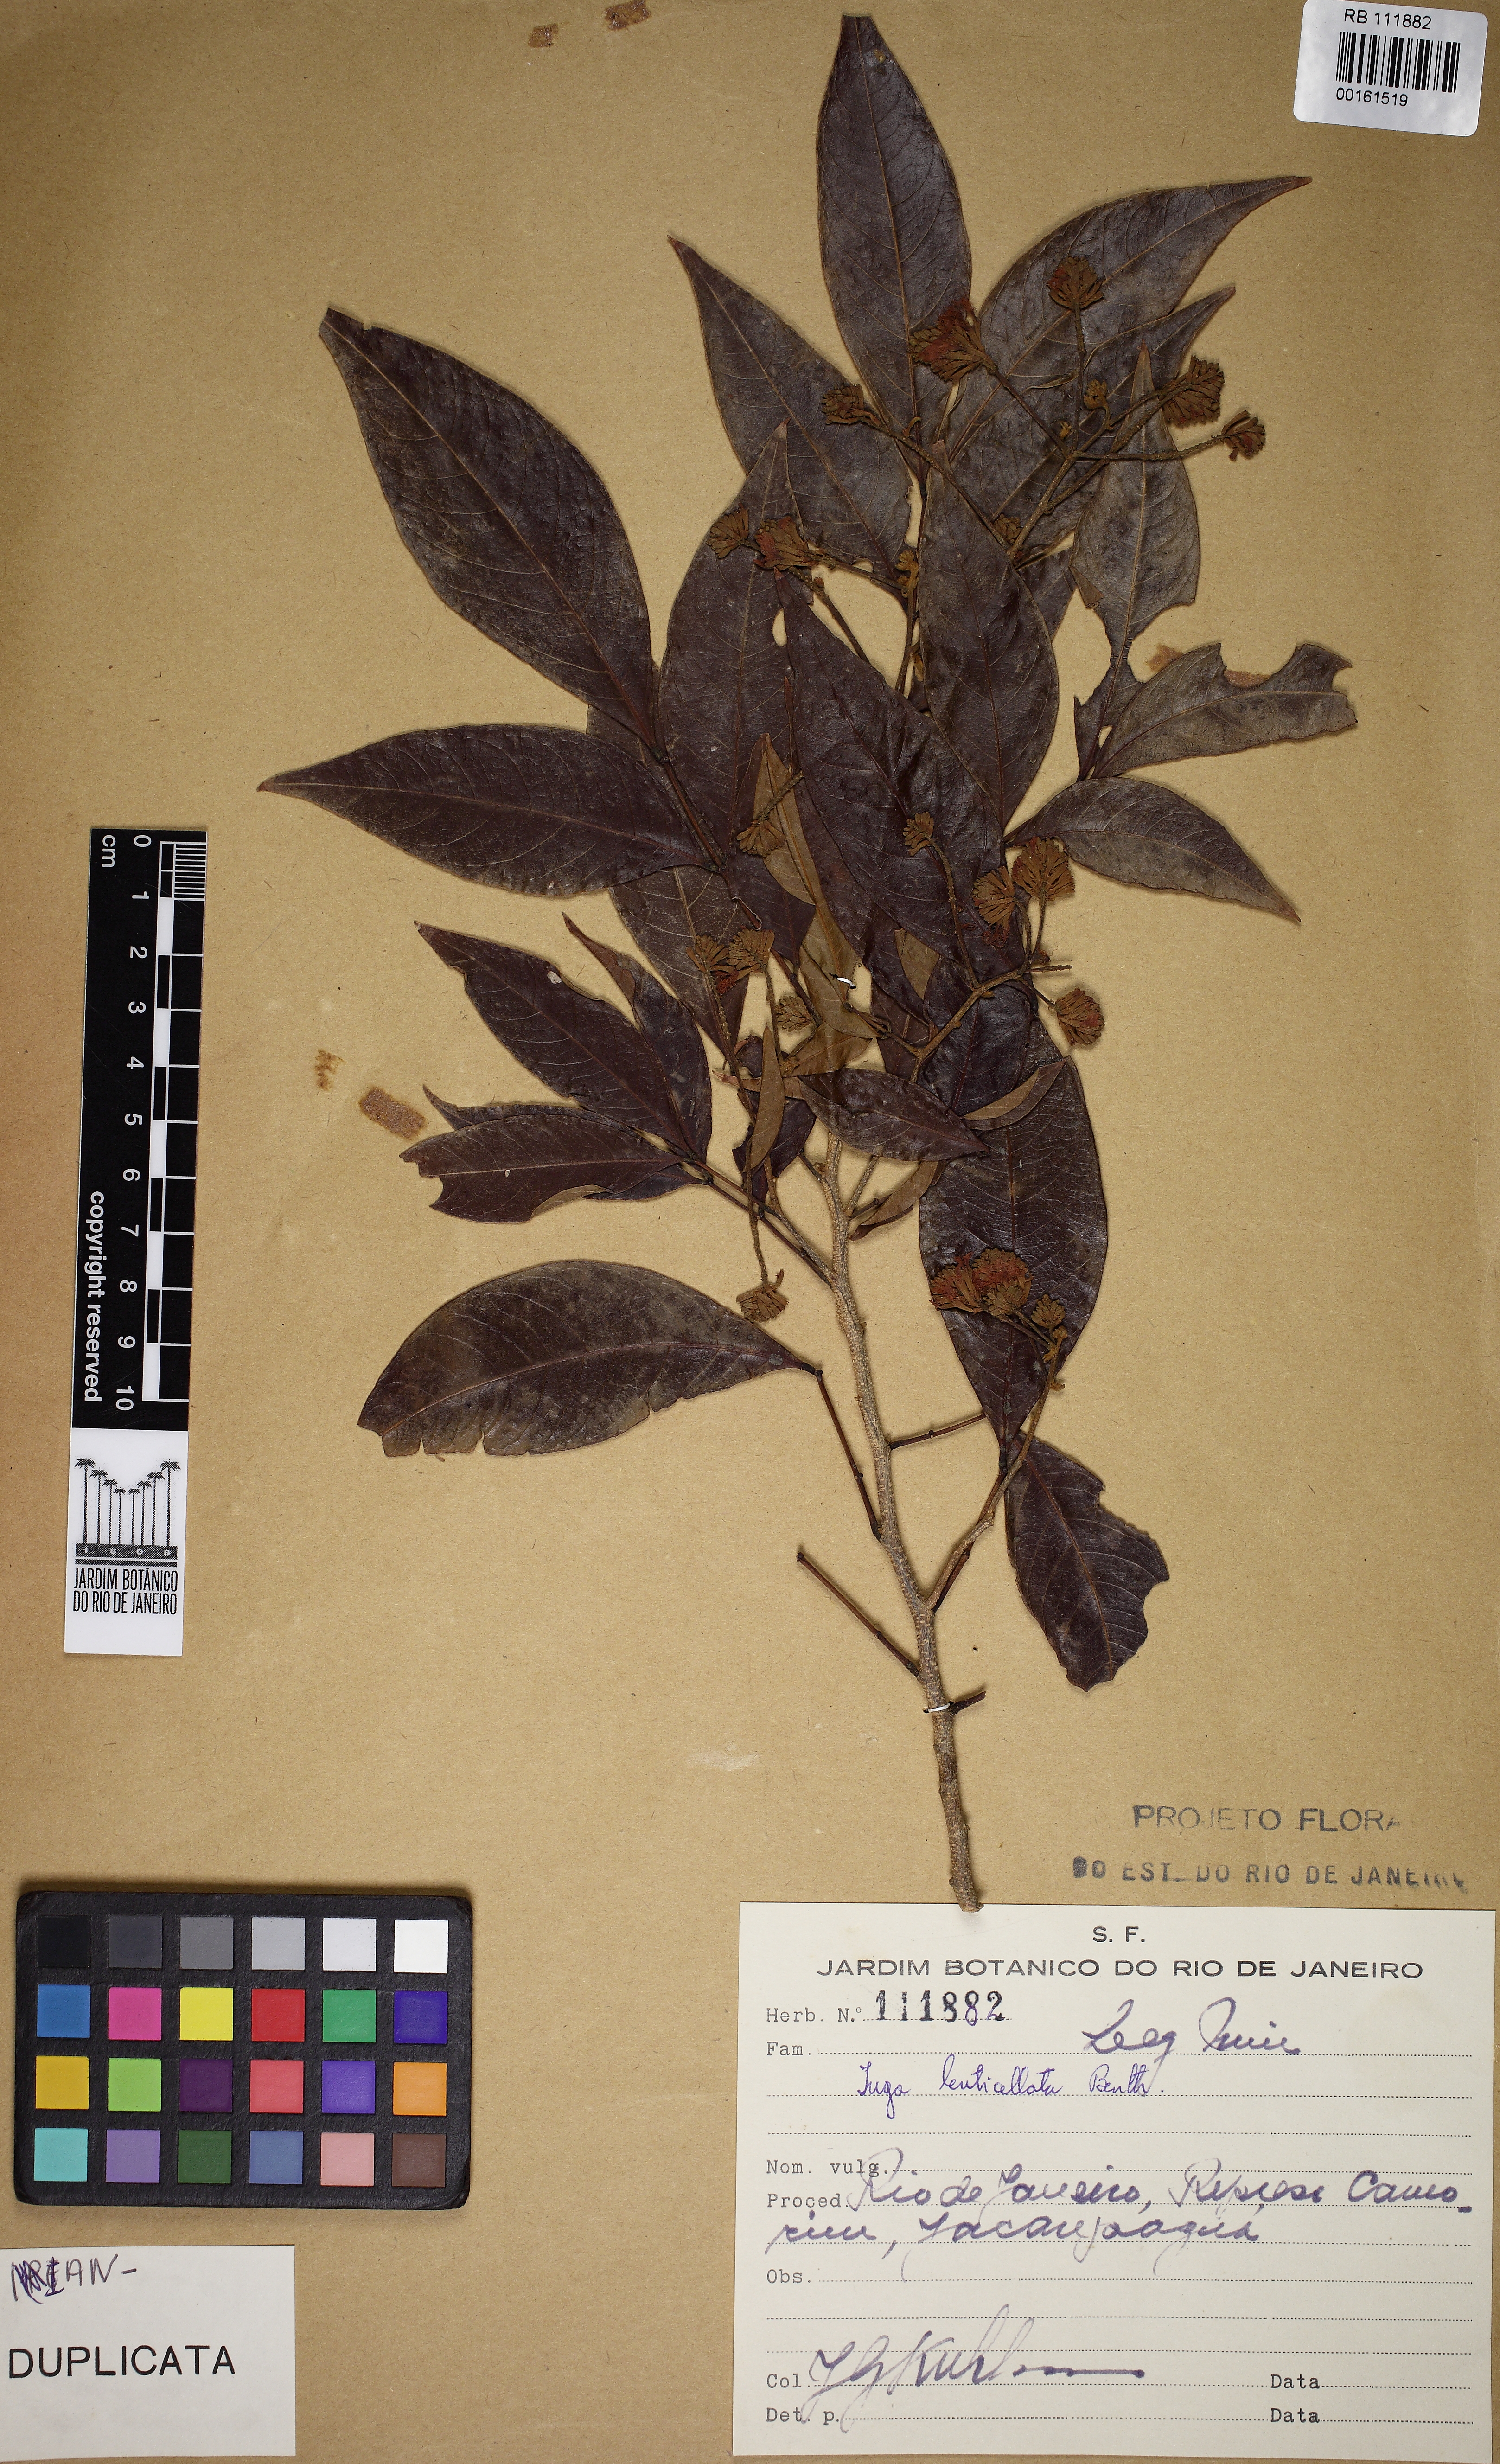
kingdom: Plantae
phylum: Tracheophyta
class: Magnoliopsida
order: Fabales
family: Fabaceae
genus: Inga
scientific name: Inga lenticellata
